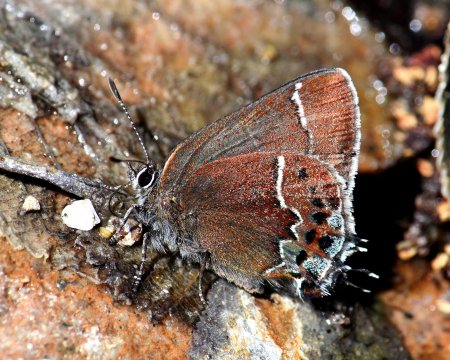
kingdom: Animalia
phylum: Arthropoda
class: Insecta
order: Lepidoptera
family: Lycaenidae
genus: Mitoura
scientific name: Mitoura spinetorum
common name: Thicket Hairstreak
